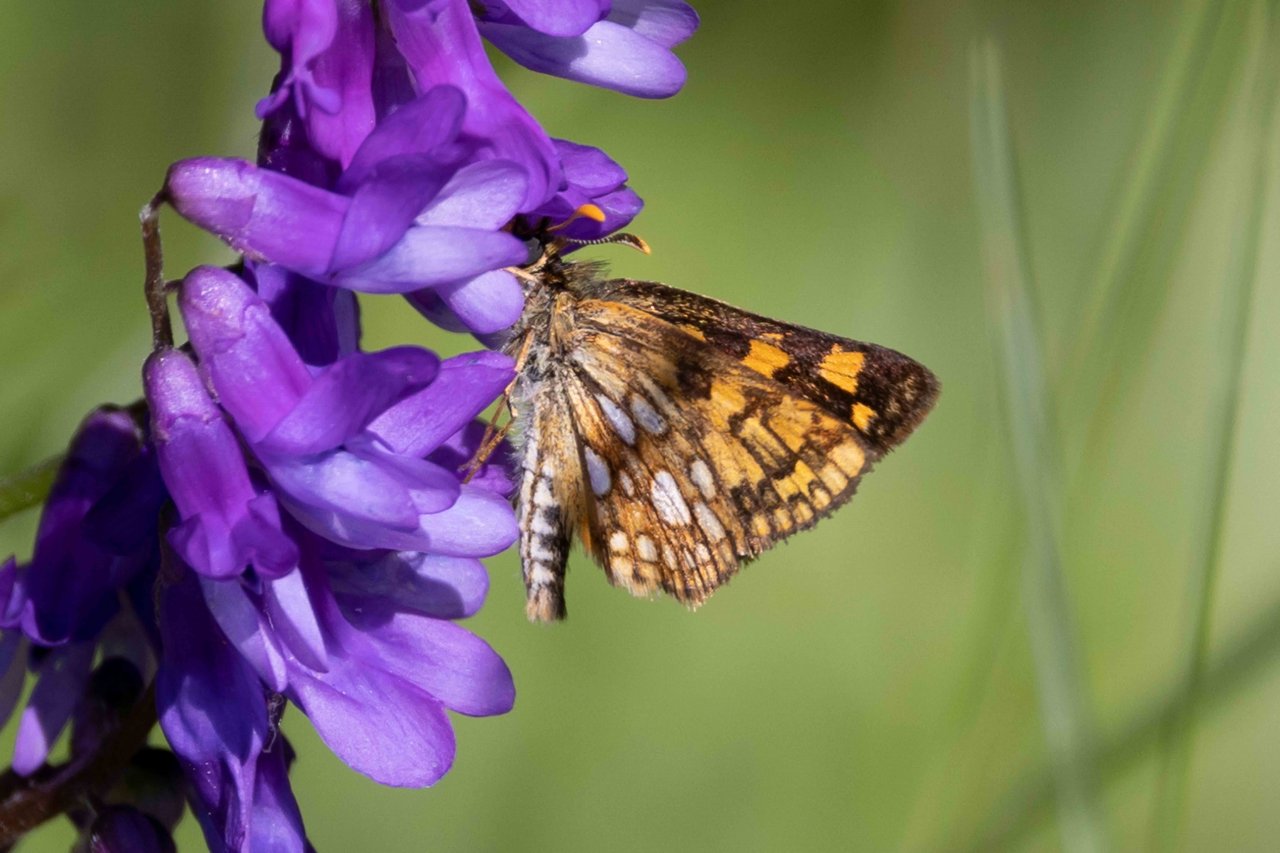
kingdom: Animalia
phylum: Arthropoda
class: Insecta
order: Lepidoptera
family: Hesperiidae
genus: Carterocephalus
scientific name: Carterocephalus palaemon
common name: Chequered Skipper
